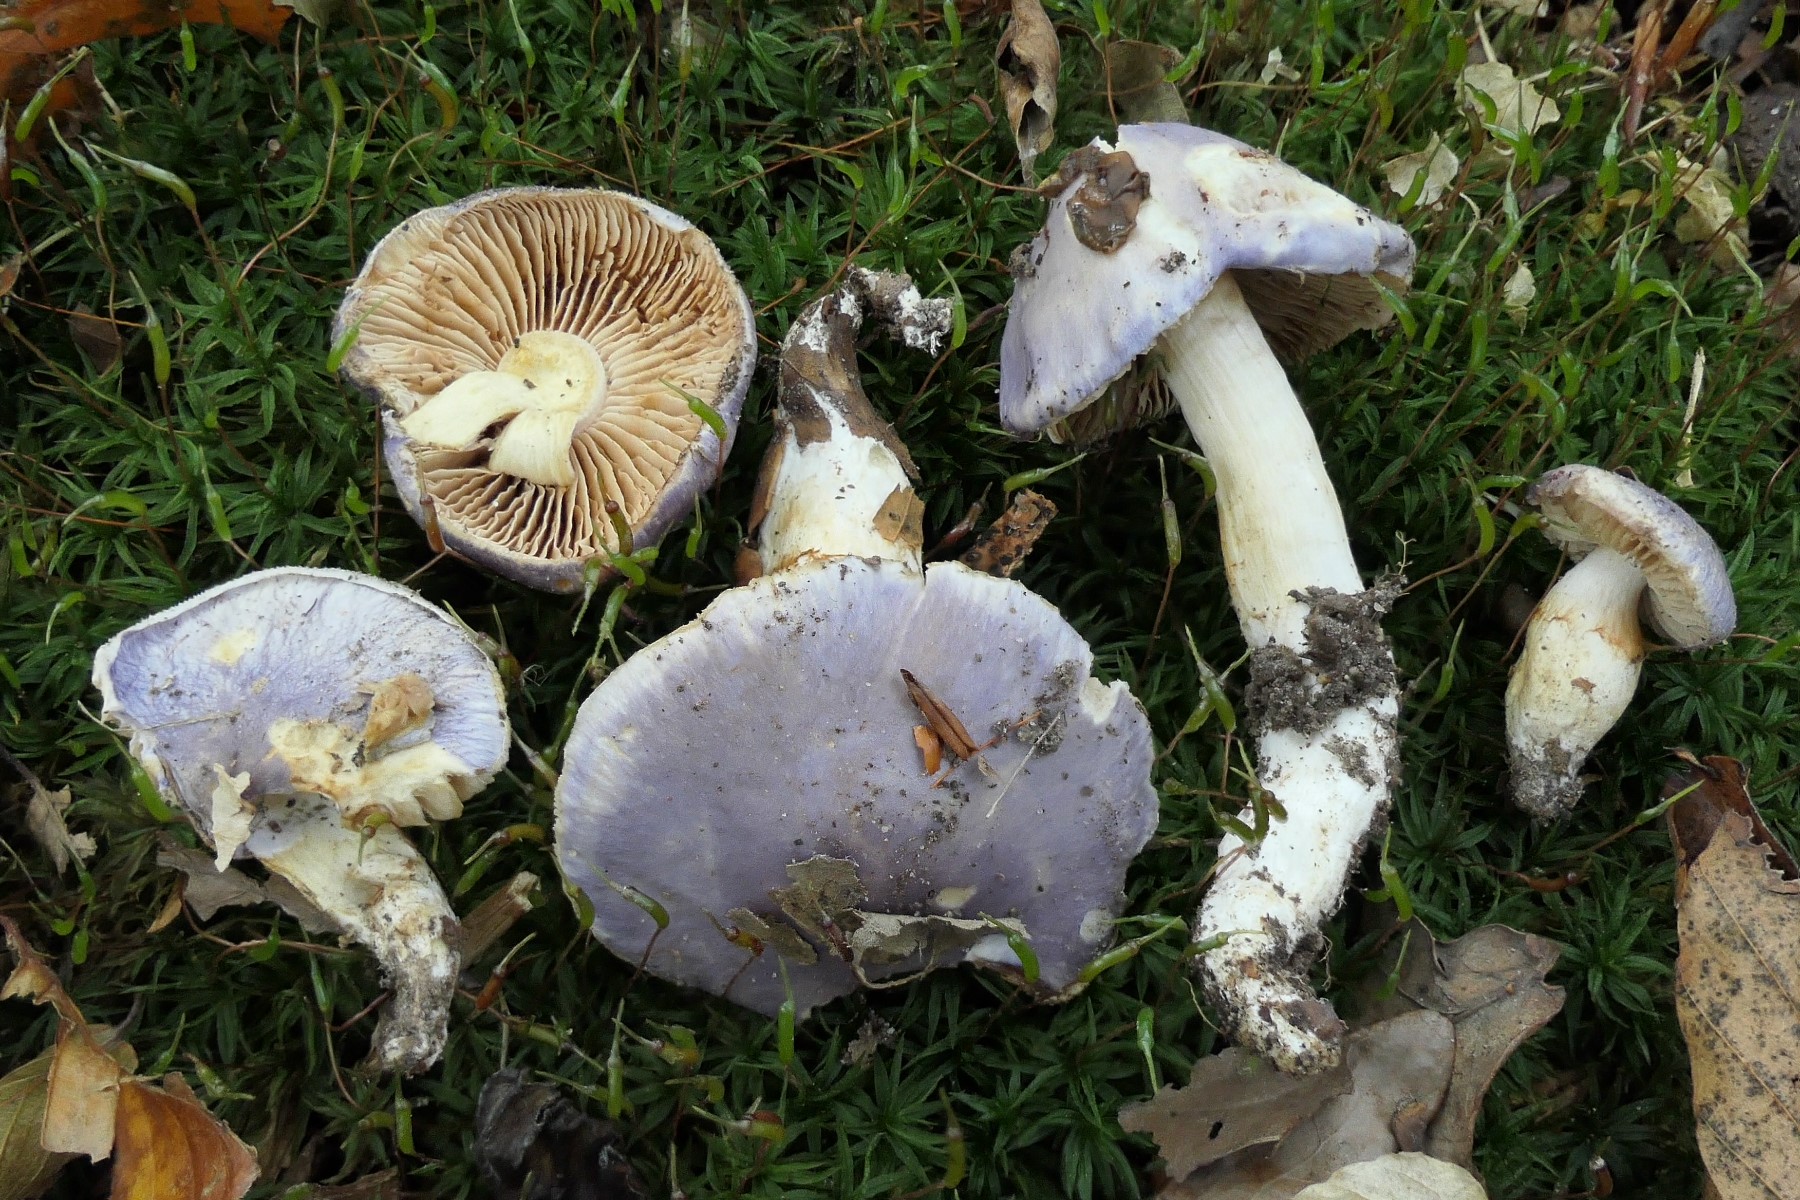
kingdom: Fungi
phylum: Basidiomycota
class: Agaricomycetes
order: Agaricales
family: Cortinariaceae
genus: Thaxterogaster
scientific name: Thaxterogaster croceocoeruleus
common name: blågullig slørhat
